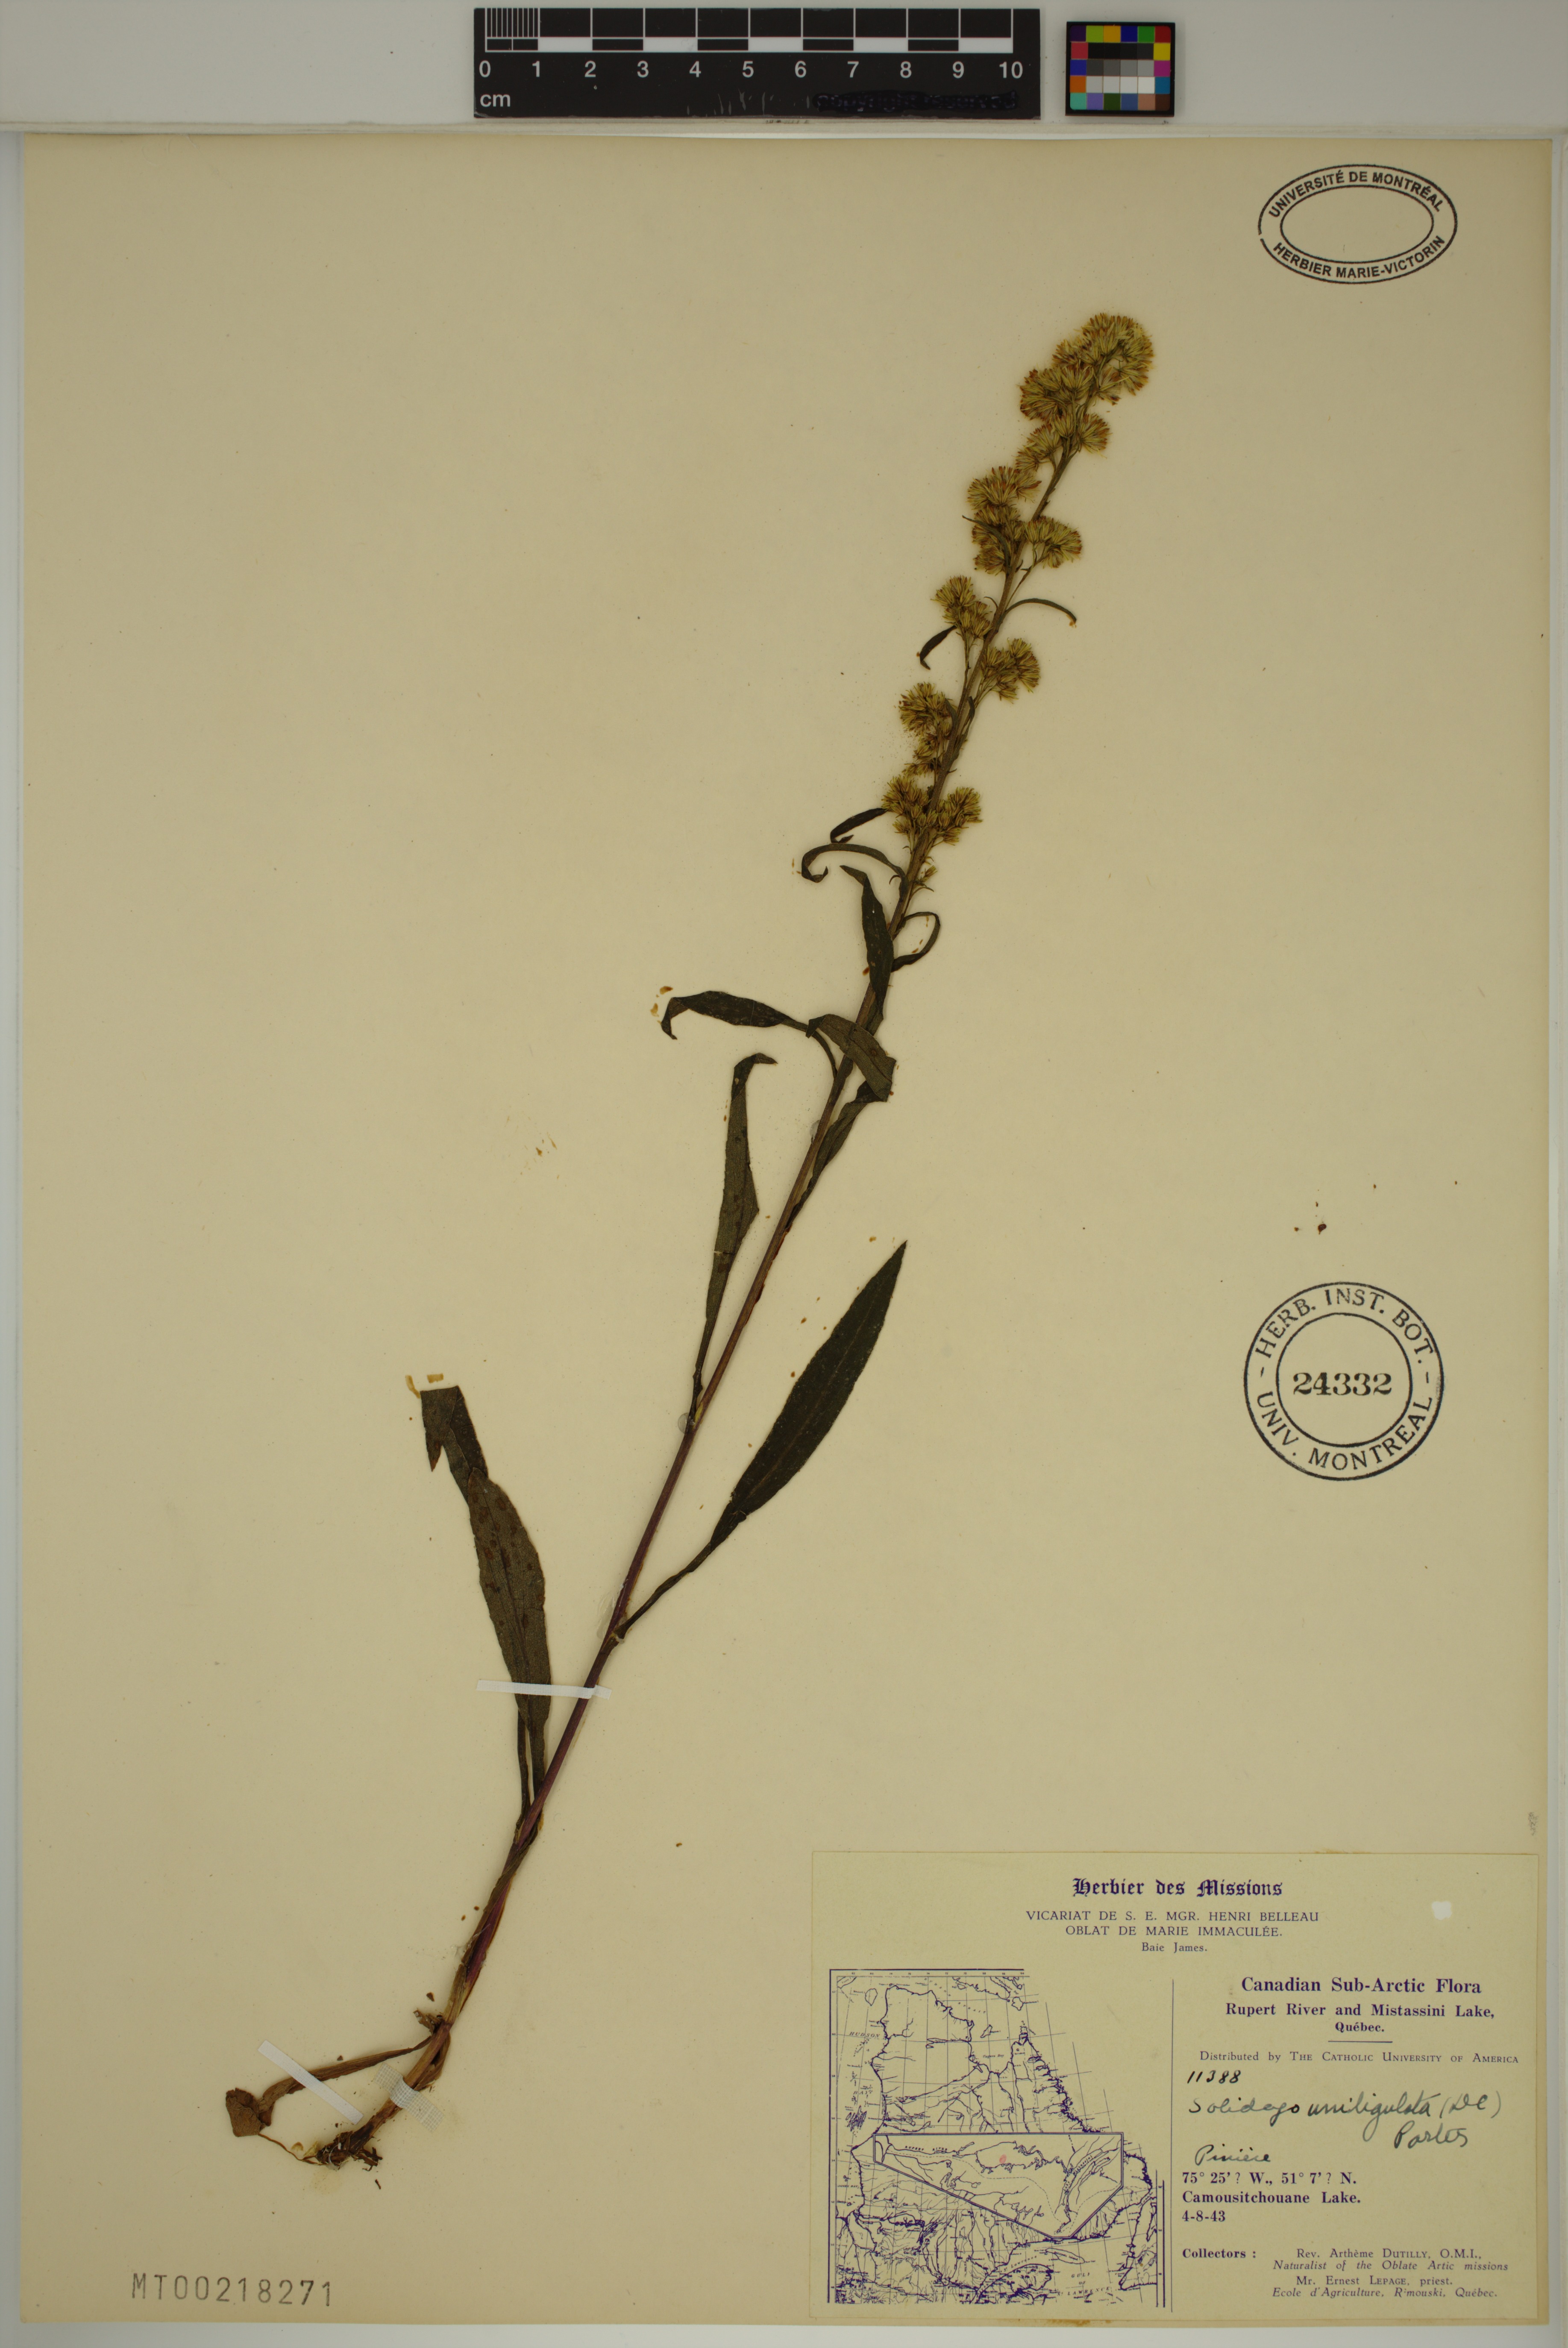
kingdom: Plantae
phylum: Tracheophyta
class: Magnoliopsida
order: Asterales
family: Asteraceae
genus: Solidago
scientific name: Solidago uliginosa
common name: Bog goldenrod
